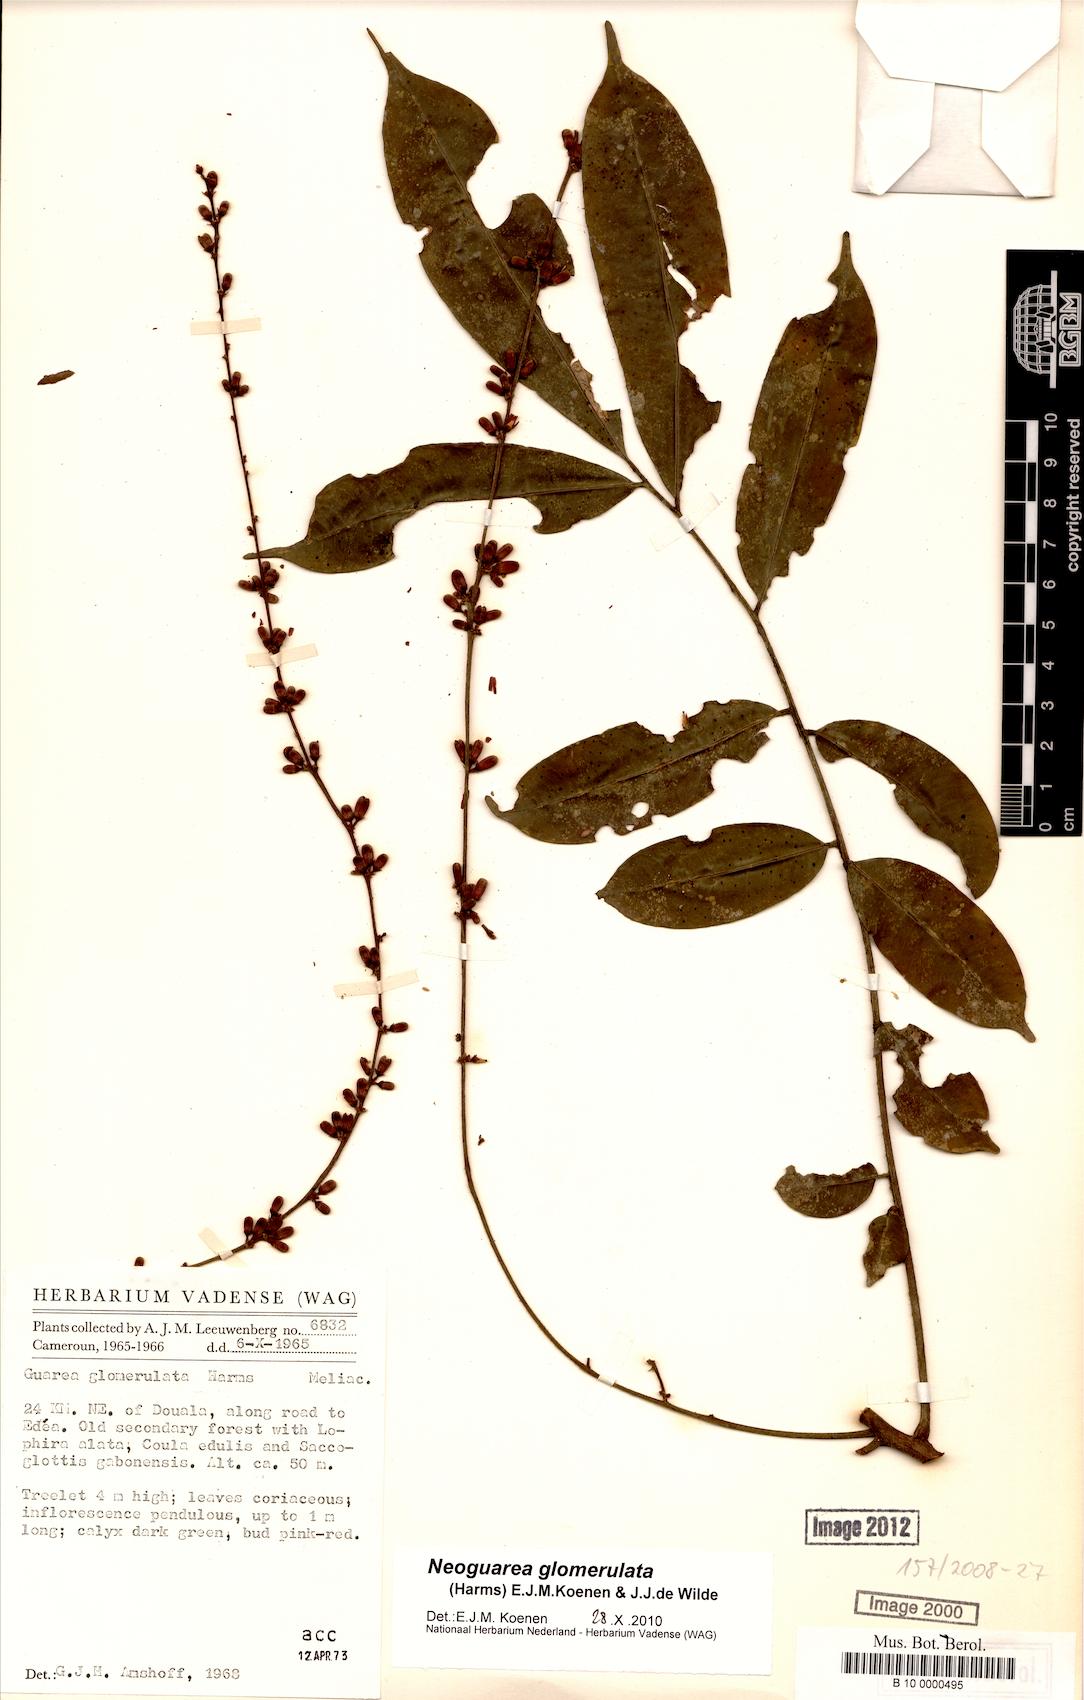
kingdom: Plantae
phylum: Tracheophyta
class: Magnoliopsida
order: Sapindales
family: Meliaceae
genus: Neoguarea
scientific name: Neoguarea glomerulata
